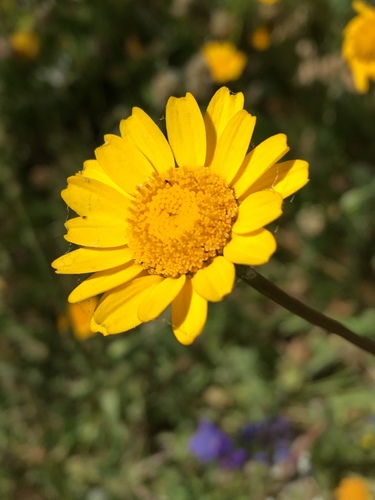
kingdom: Plantae
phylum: Tracheophyta
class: Magnoliopsida
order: Asterales
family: Asteraceae
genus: Coleostephus
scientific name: Coleostephus myconis
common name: Mediterranean marigold
